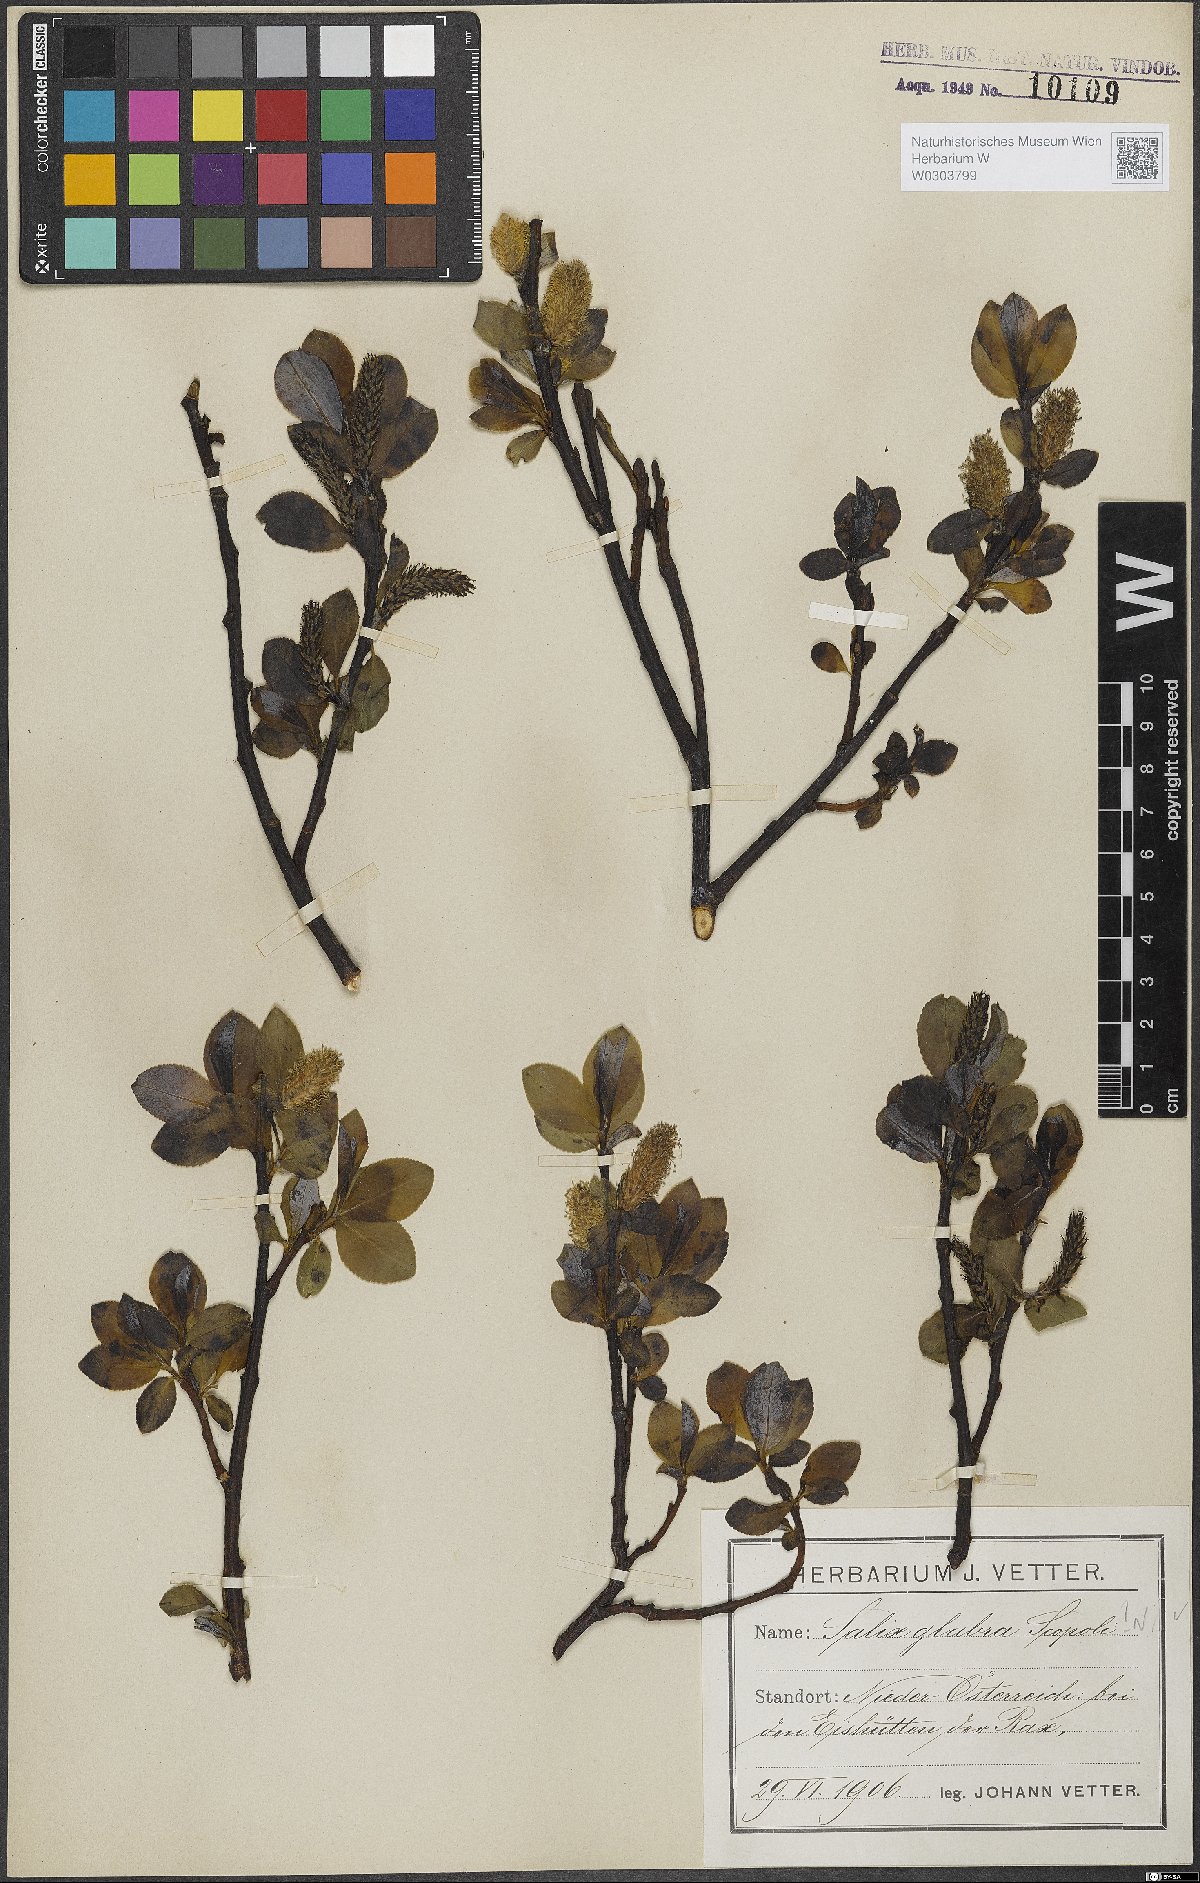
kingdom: Plantae
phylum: Tracheophyta
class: Magnoliopsida
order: Malpighiales
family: Salicaceae
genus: Salix
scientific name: Salix glabra
